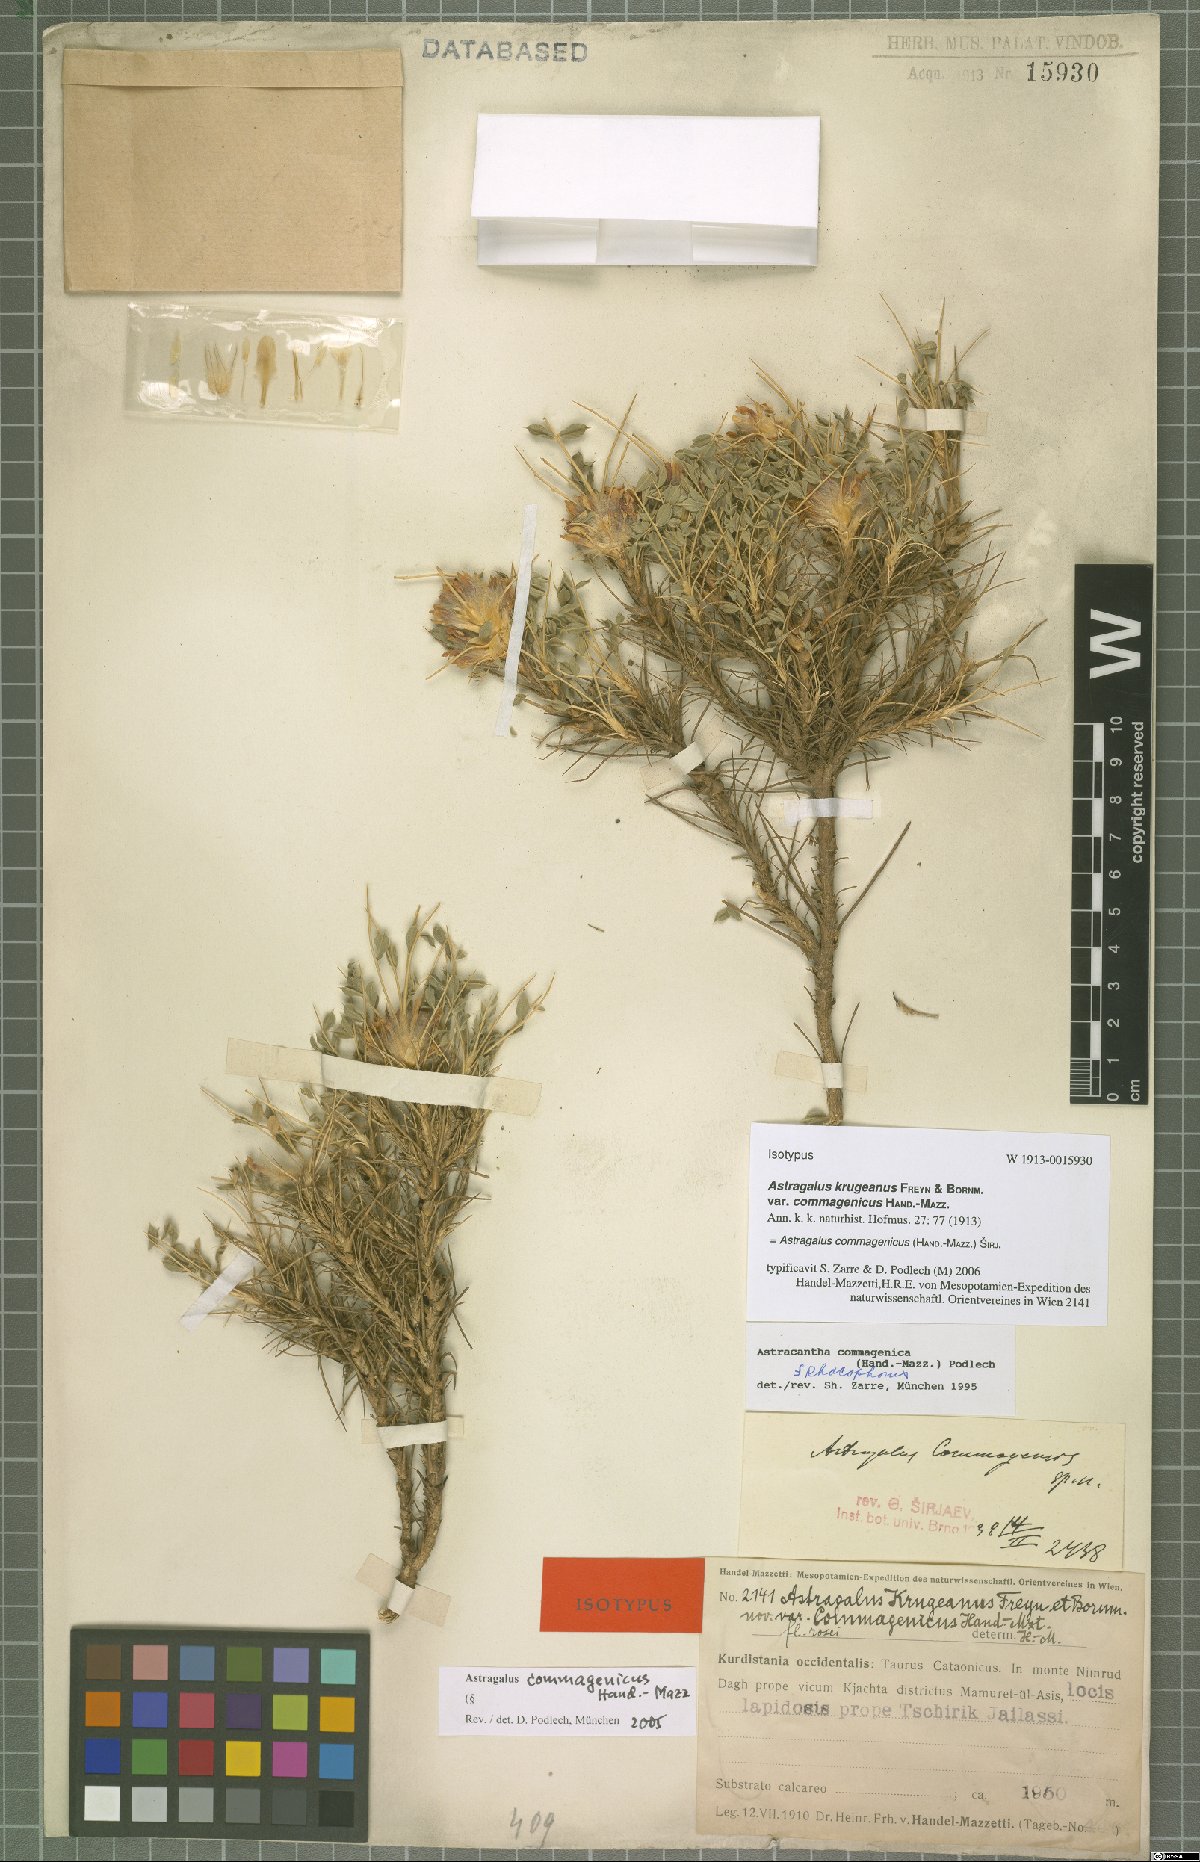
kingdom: Plantae
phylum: Tracheophyta
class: Magnoliopsida
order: Fabales
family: Fabaceae
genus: Astragalus
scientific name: Astragalus commagenicus
